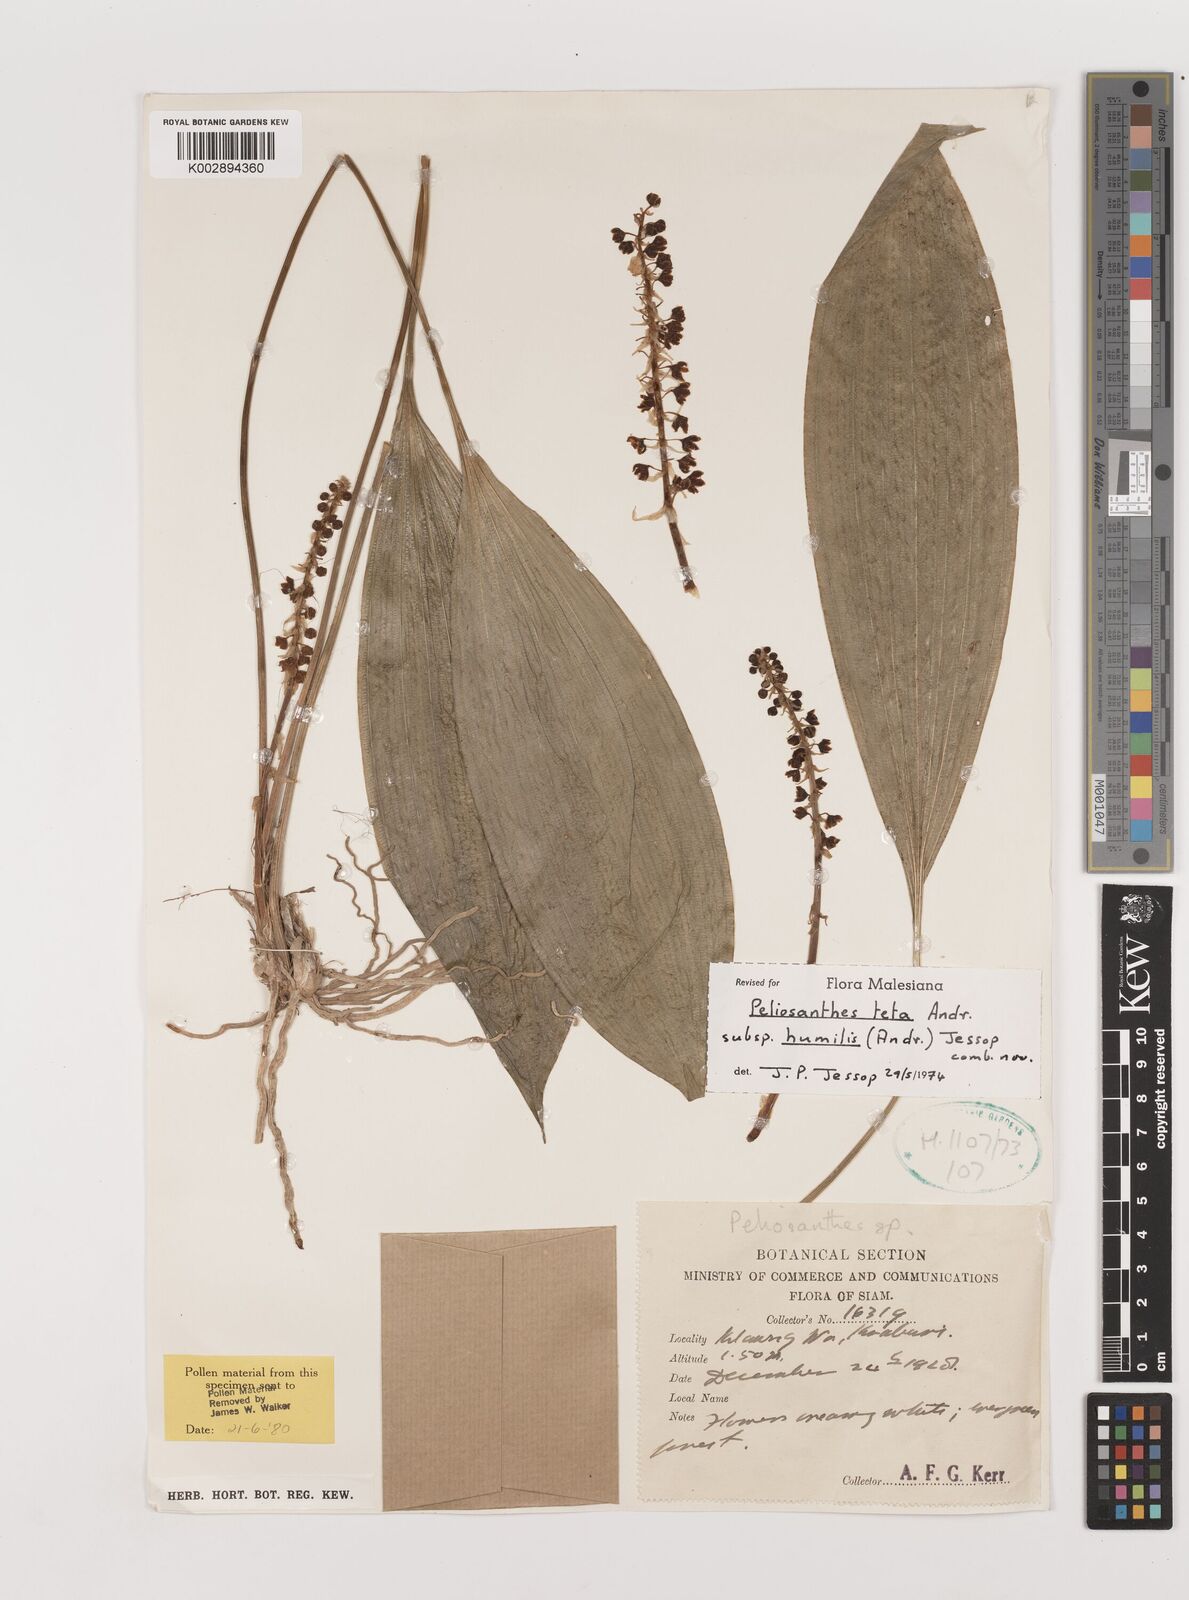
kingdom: Plantae
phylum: Tracheophyta
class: Liliopsida
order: Asparagales
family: Asparagaceae
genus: Peliosanthes
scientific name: Peliosanthes teta
